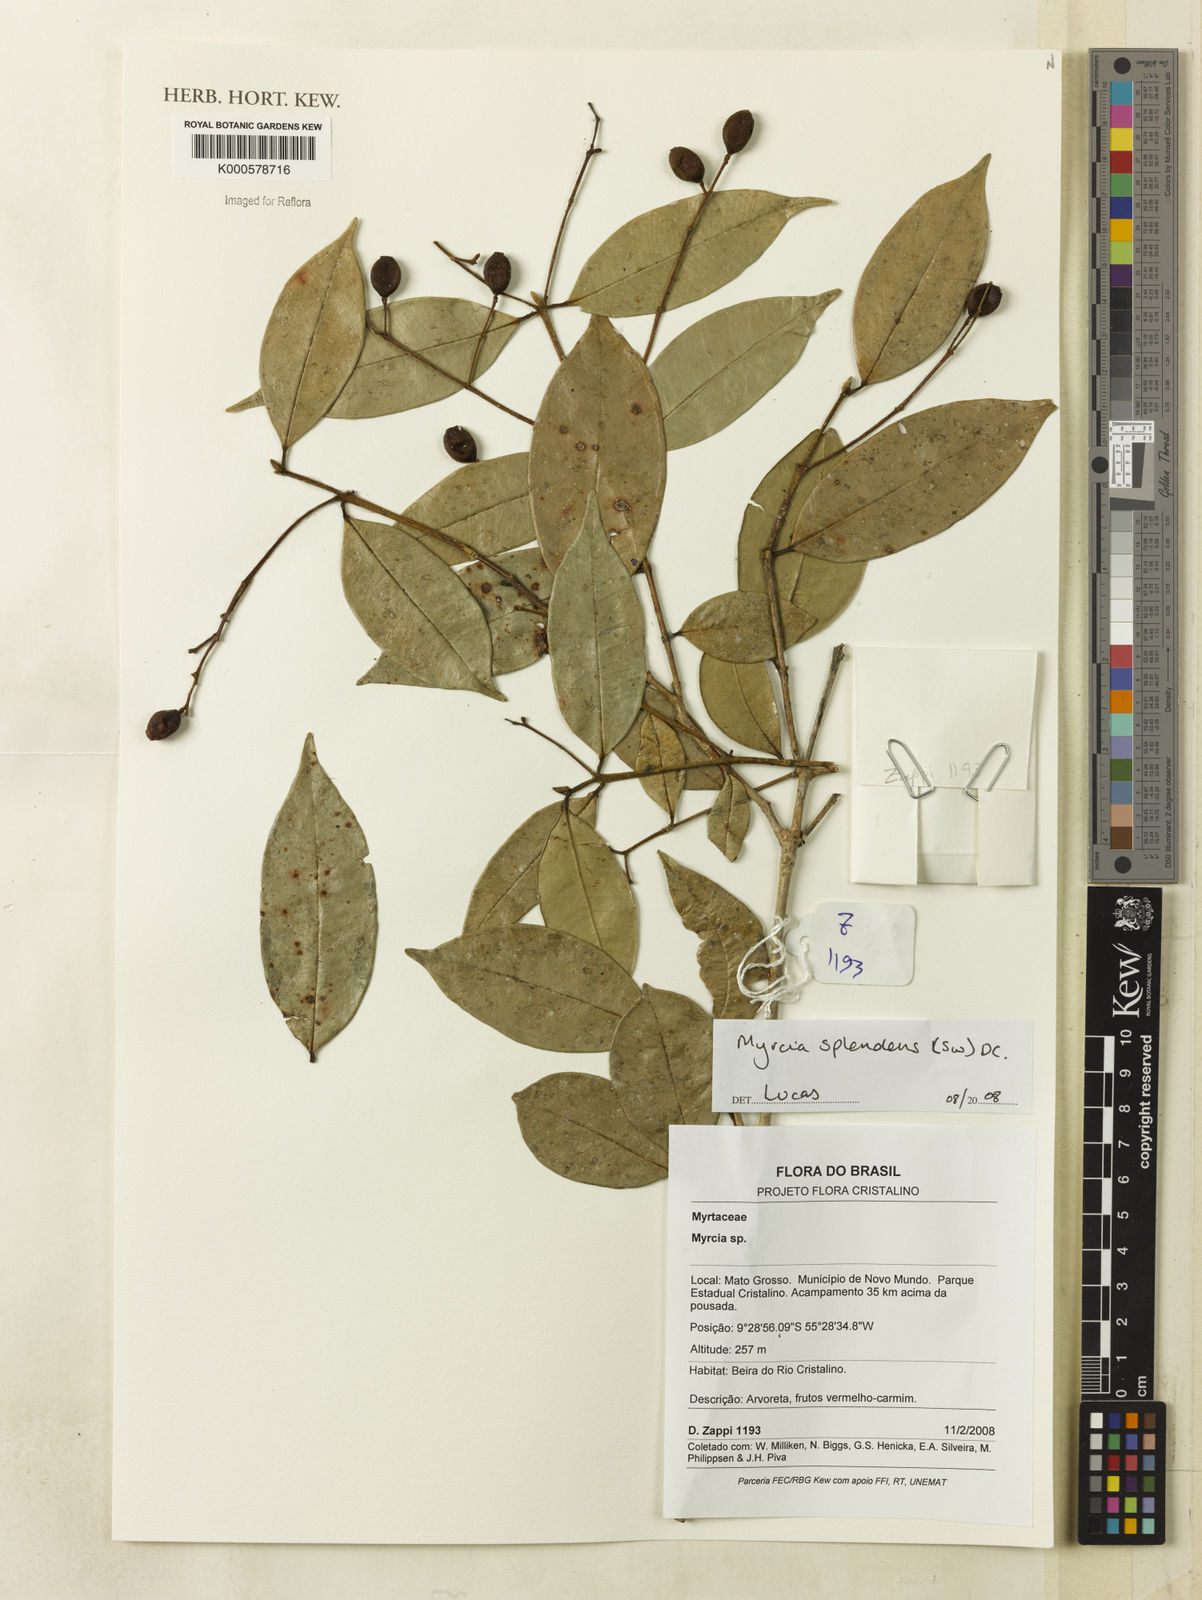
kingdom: Plantae
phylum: Tracheophyta
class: Magnoliopsida
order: Myrtales
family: Myrtaceae
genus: Myrcia
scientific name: Myrcia splendens
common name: Surinam cherry
